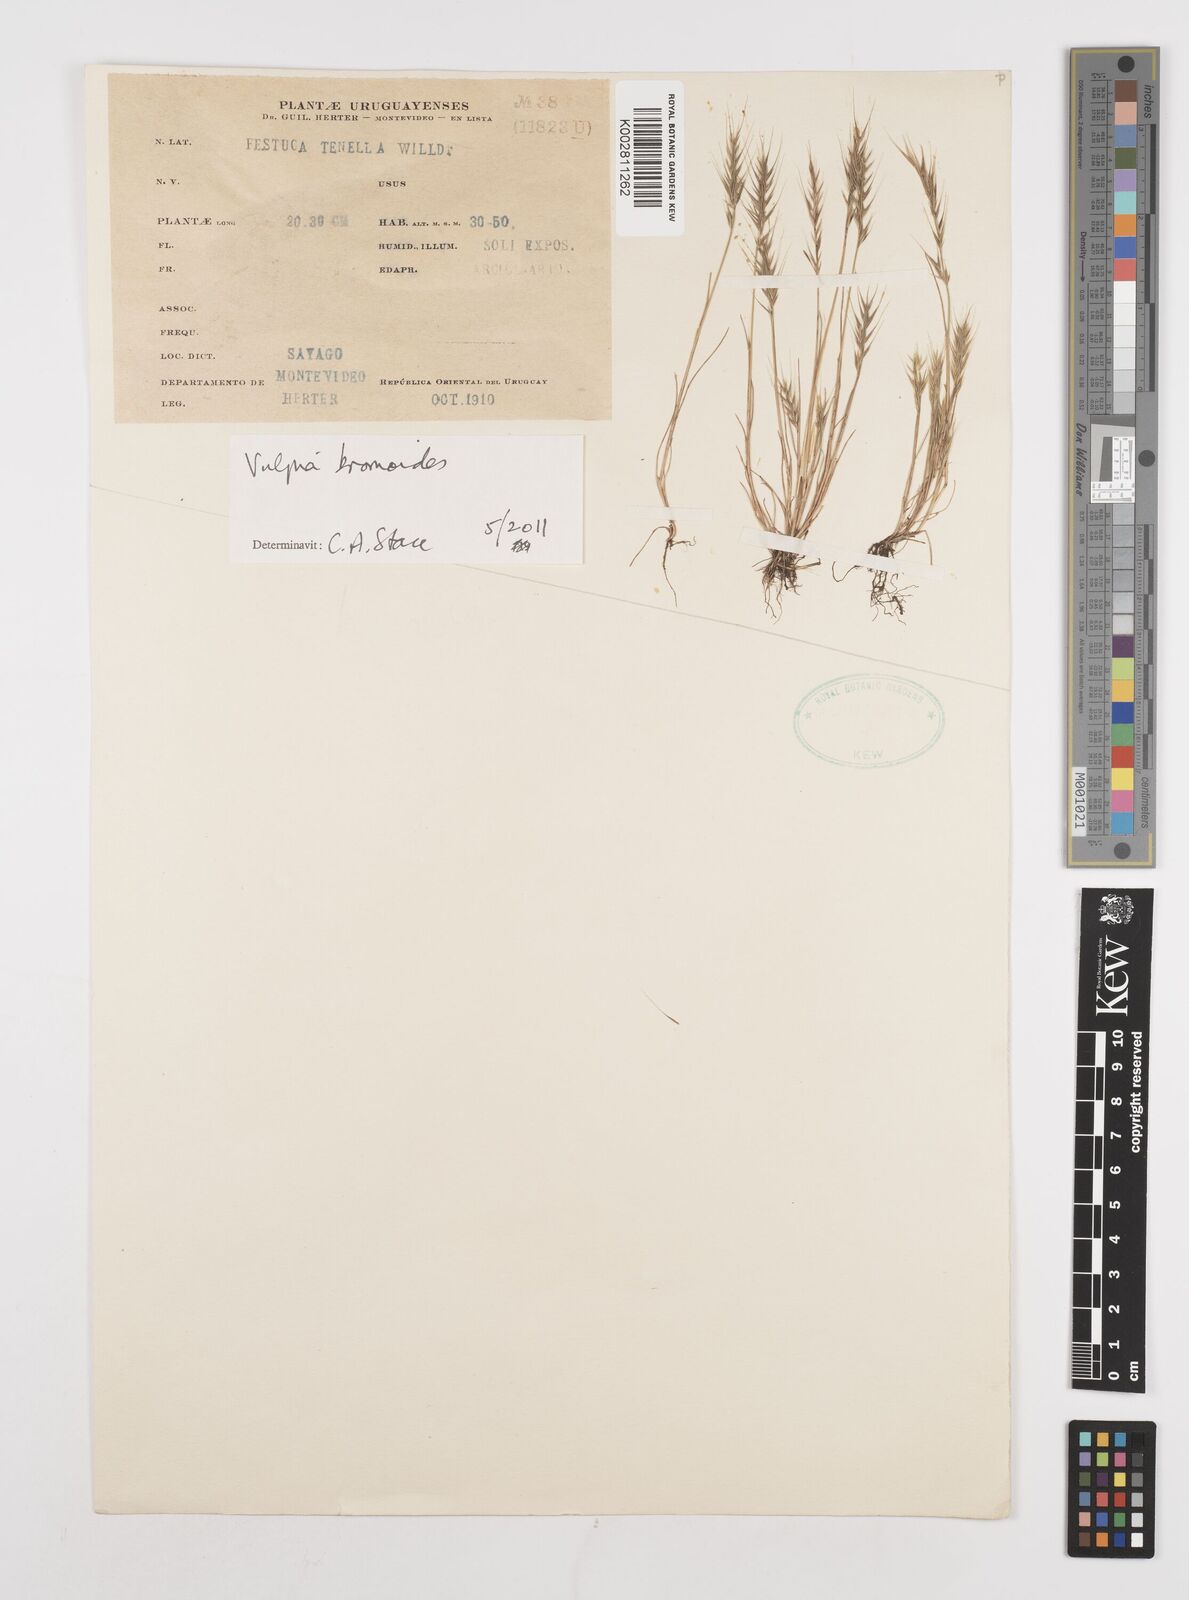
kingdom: Plantae
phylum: Tracheophyta
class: Liliopsida
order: Poales
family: Poaceae
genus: Festuca
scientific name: Festuca bromoides
